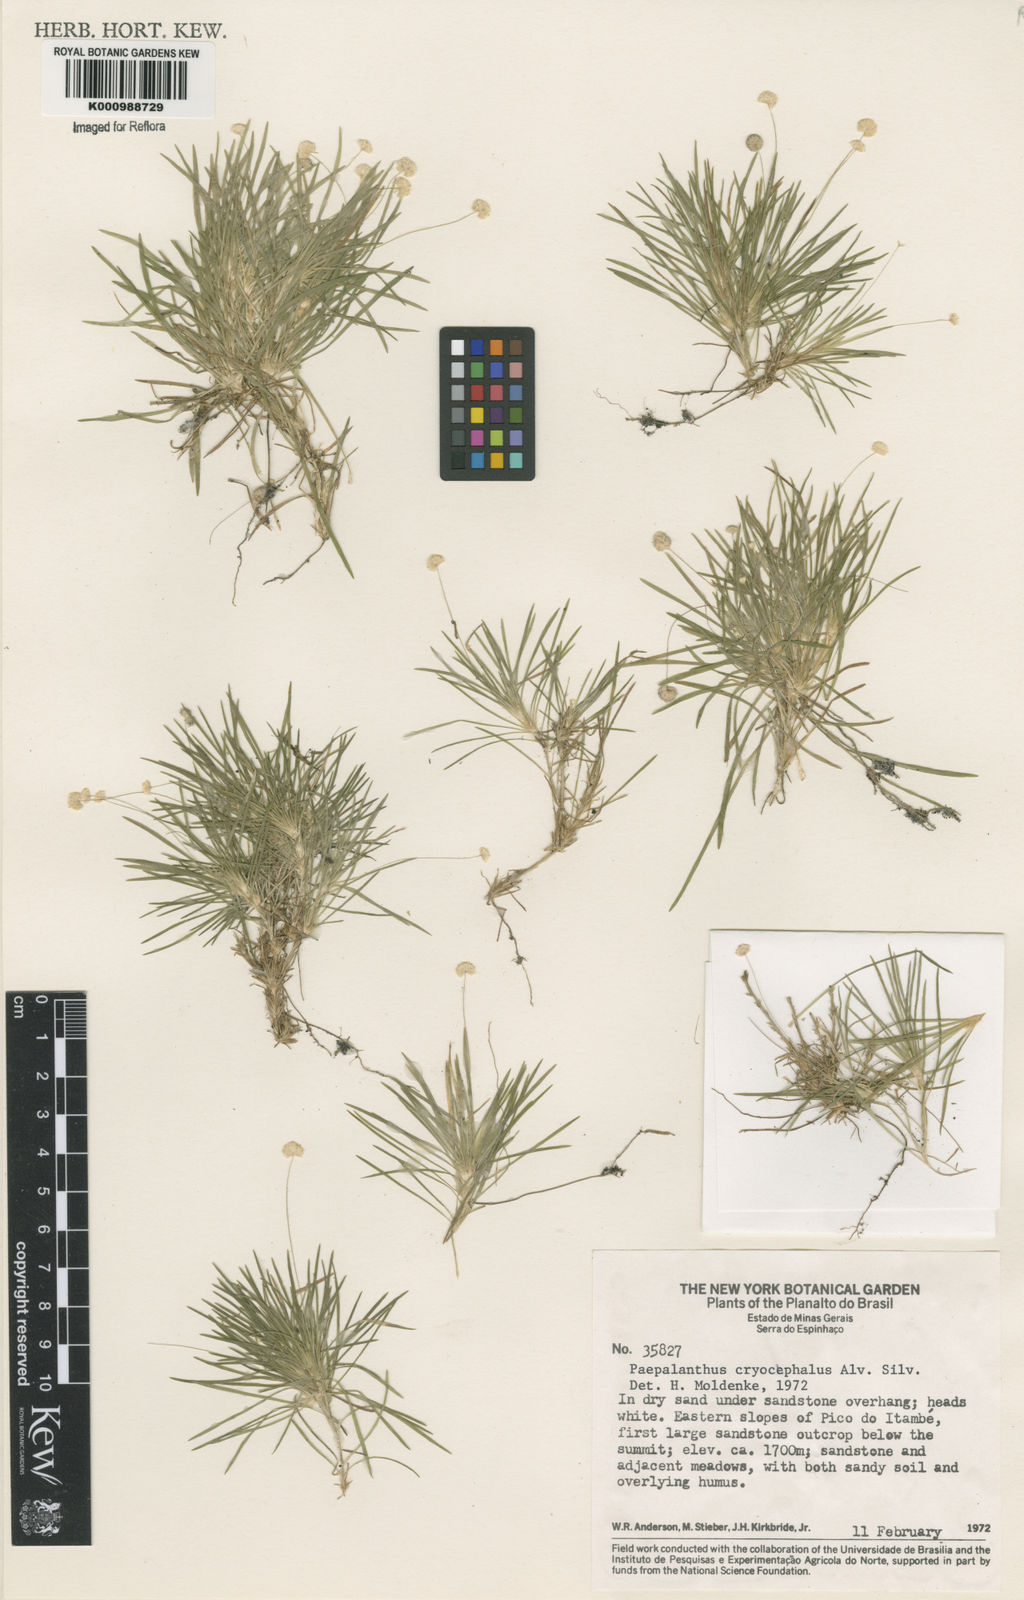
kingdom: Plantae
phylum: Tracheophyta
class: Liliopsida
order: Poales
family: Eriocaulaceae
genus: Paepalanthus
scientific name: Paepalanthus cryocephalus
